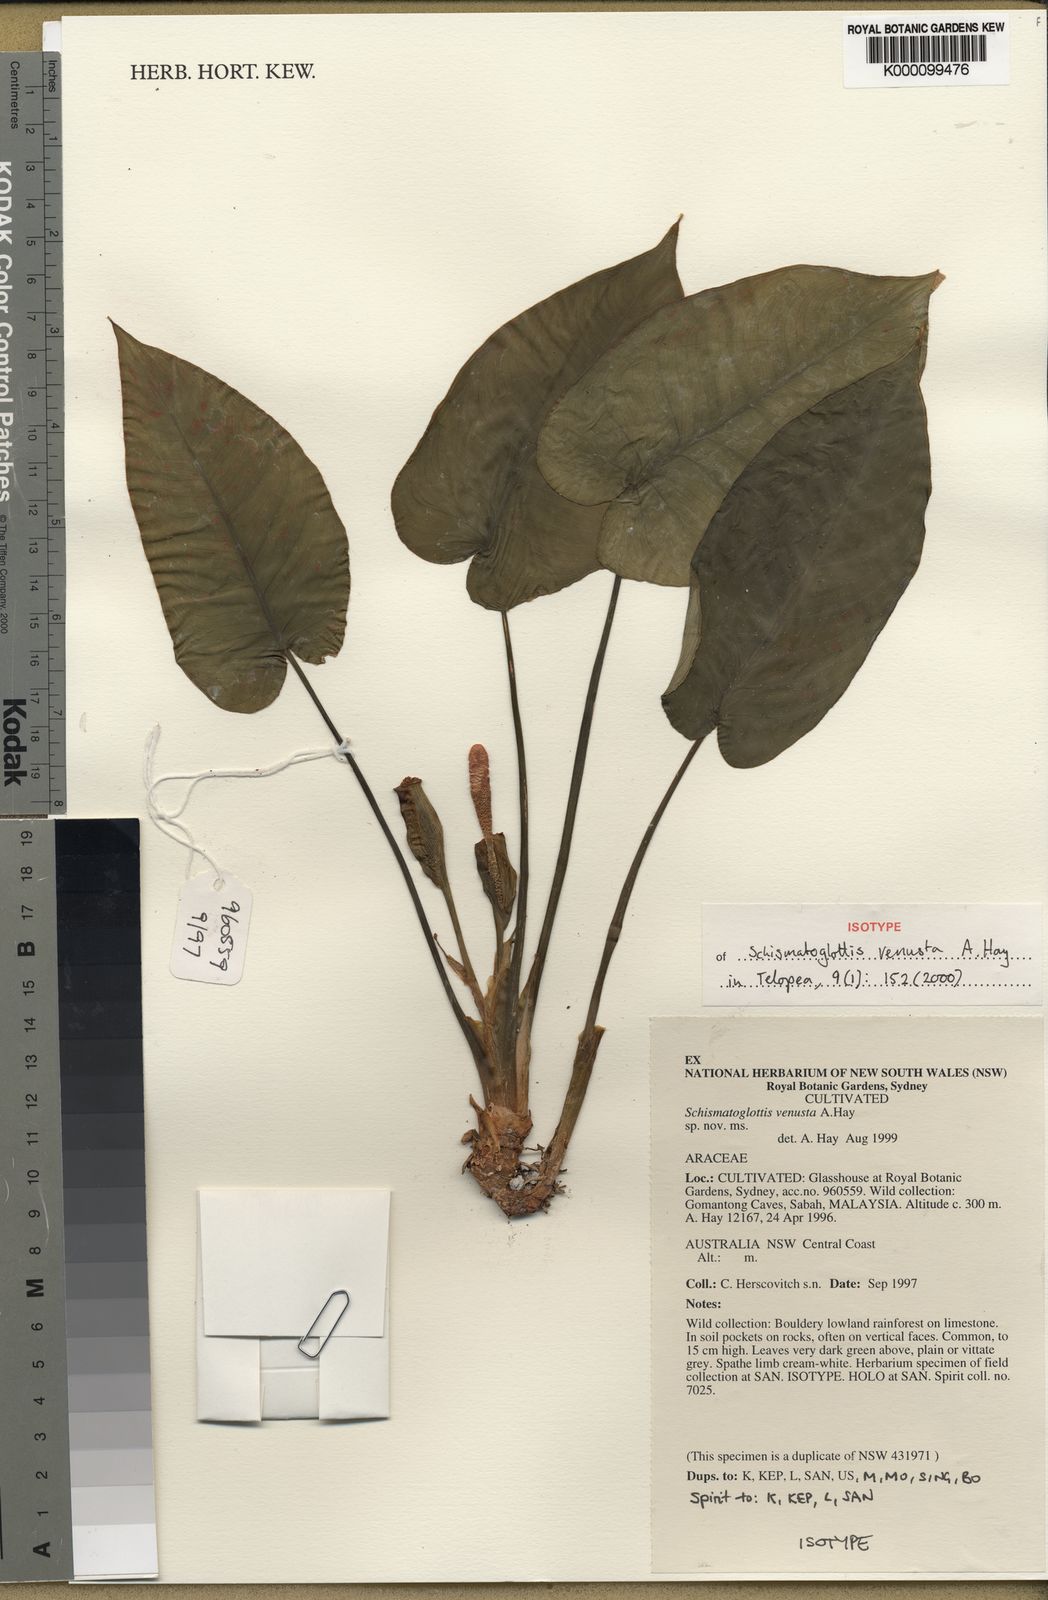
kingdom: Plantae
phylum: Tracheophyta
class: Liliopsida
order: Alismatales
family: Araceae
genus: Schismatoglottis
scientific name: Schismatoglottis venusta
